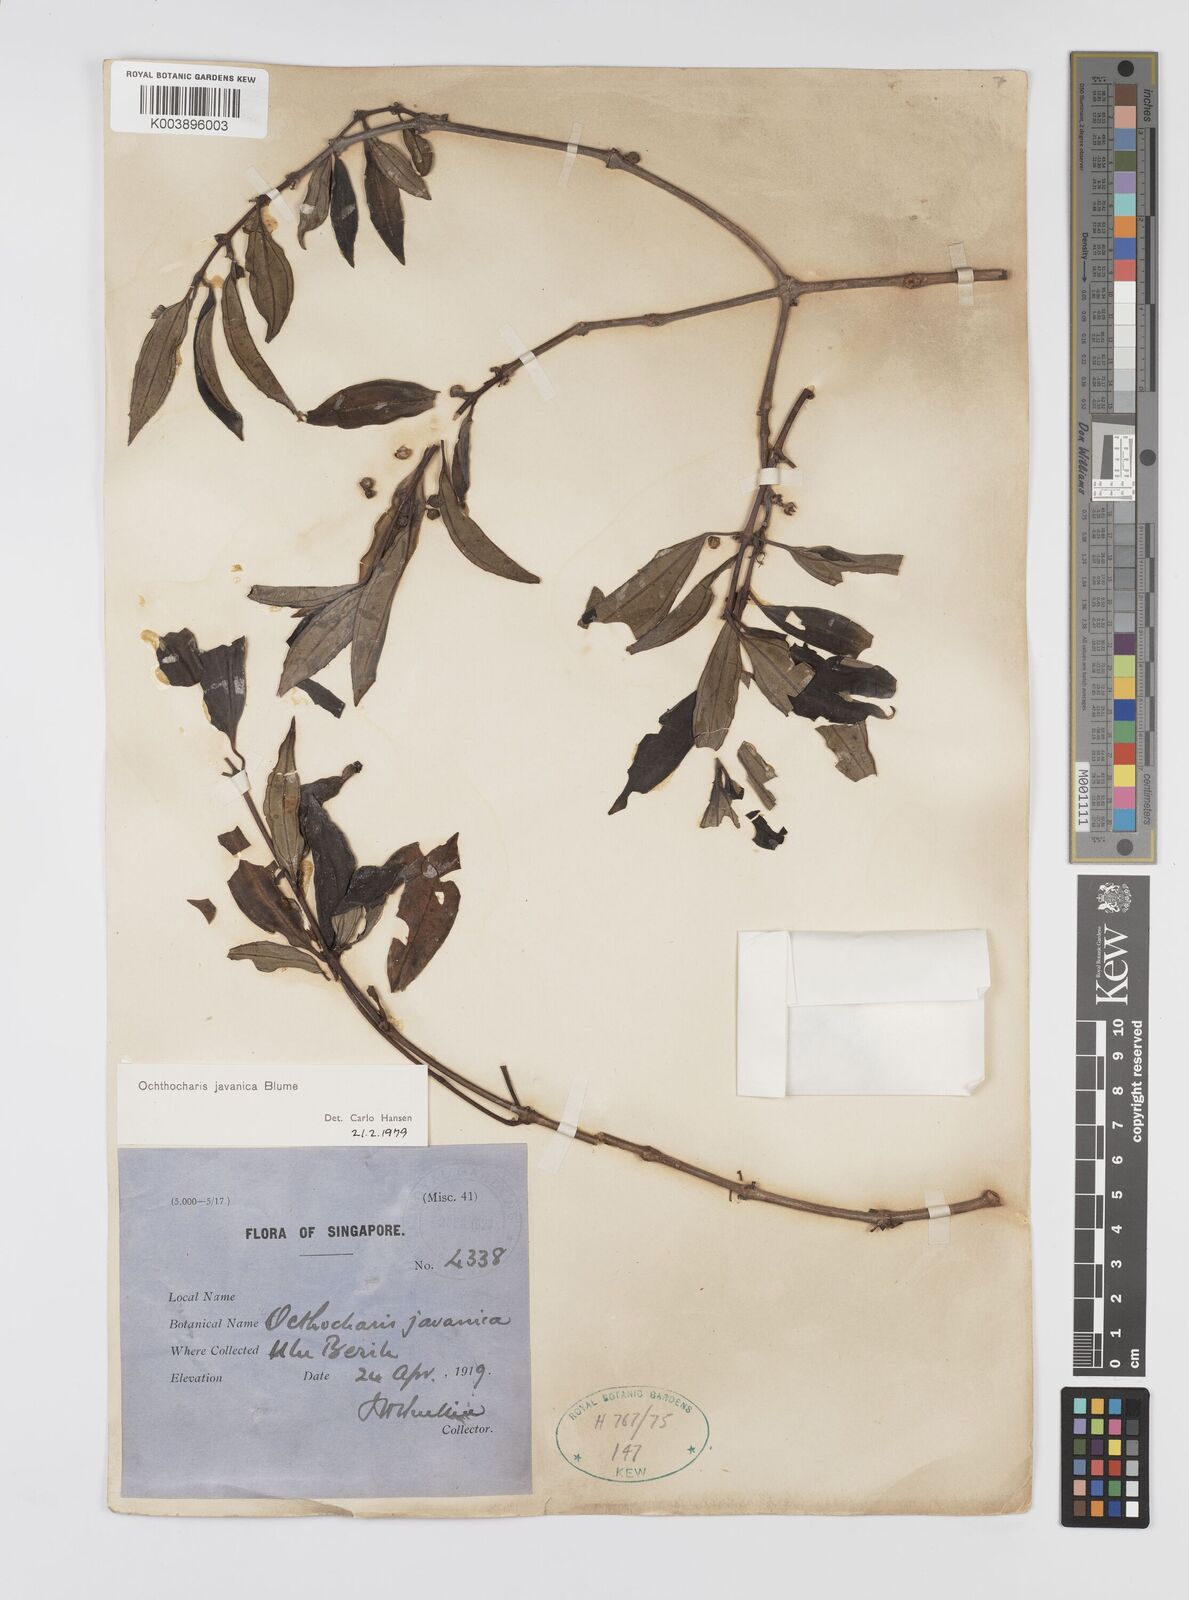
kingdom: Plantae
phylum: Tracheophyta
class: Magnoliopsida
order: Myrtales
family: Melastomataceae
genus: Ochthocharis
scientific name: Ochthocharis javanica
